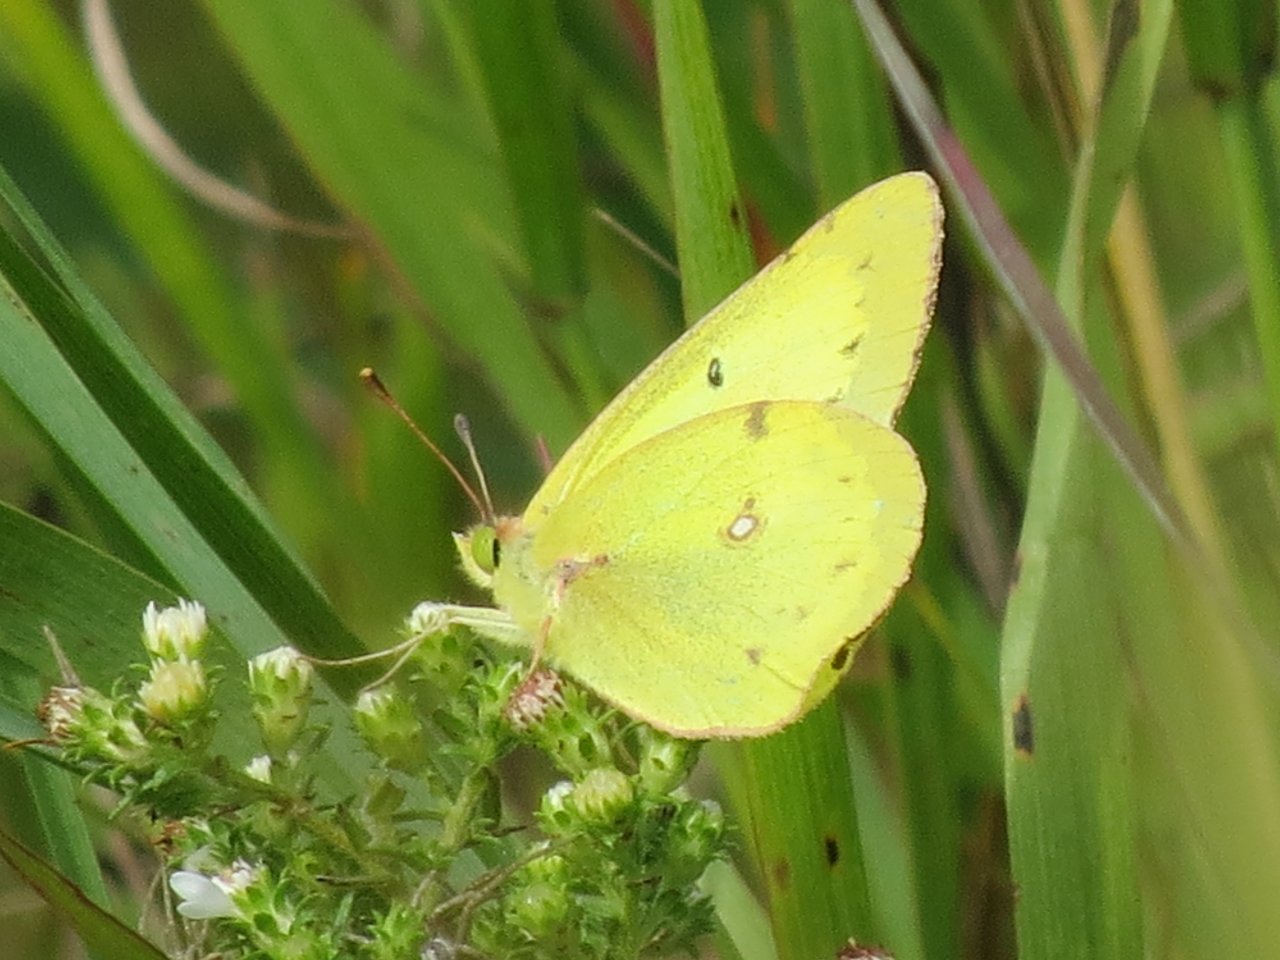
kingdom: Animalia
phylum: Arthropoda
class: Insecta
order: Lepidoptera
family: Pieridae
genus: Colias
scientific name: Colias philodice
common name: Clouded Sulphur
